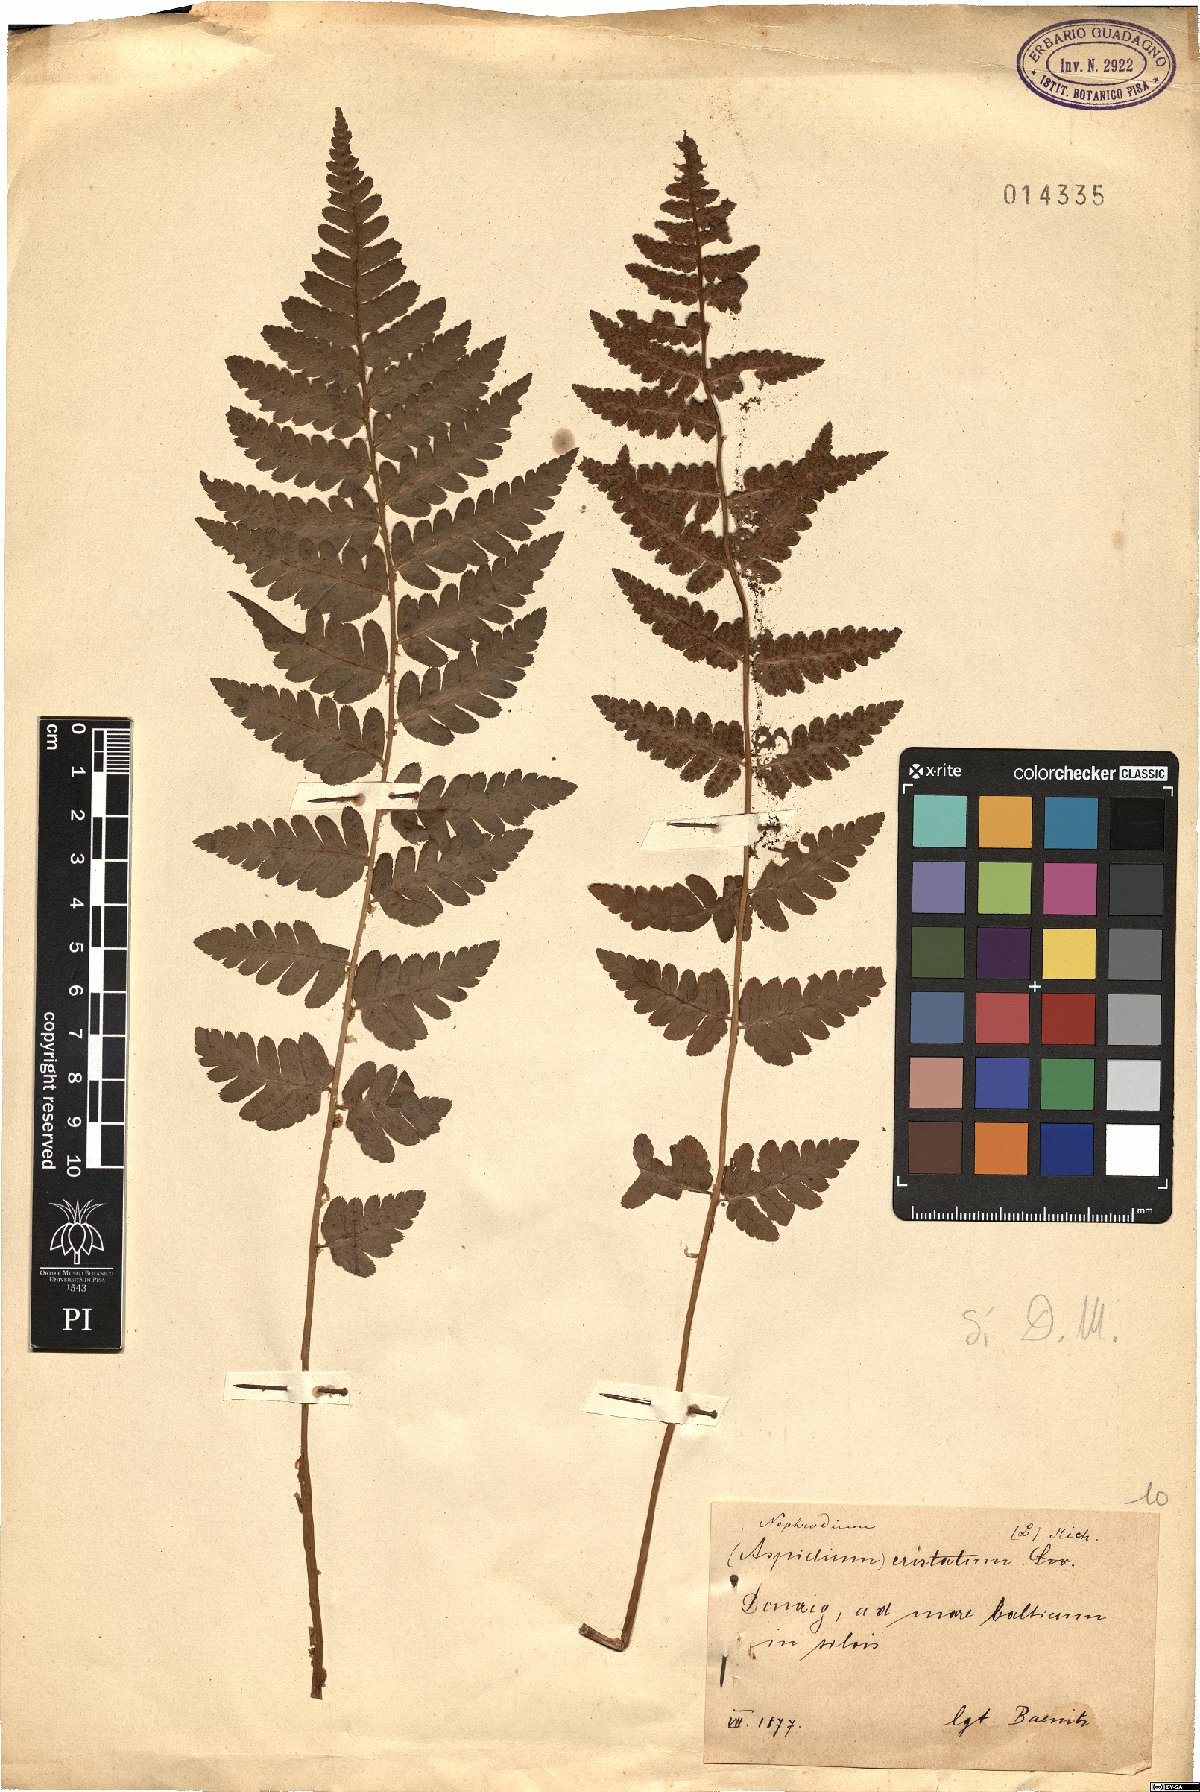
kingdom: Plantae
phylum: Tracheophyta
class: Polypodiopsida
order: Polypodiales
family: Dryopteridaceae
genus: Dryopteris
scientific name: Dryopteris cristata
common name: Crested wood fern
